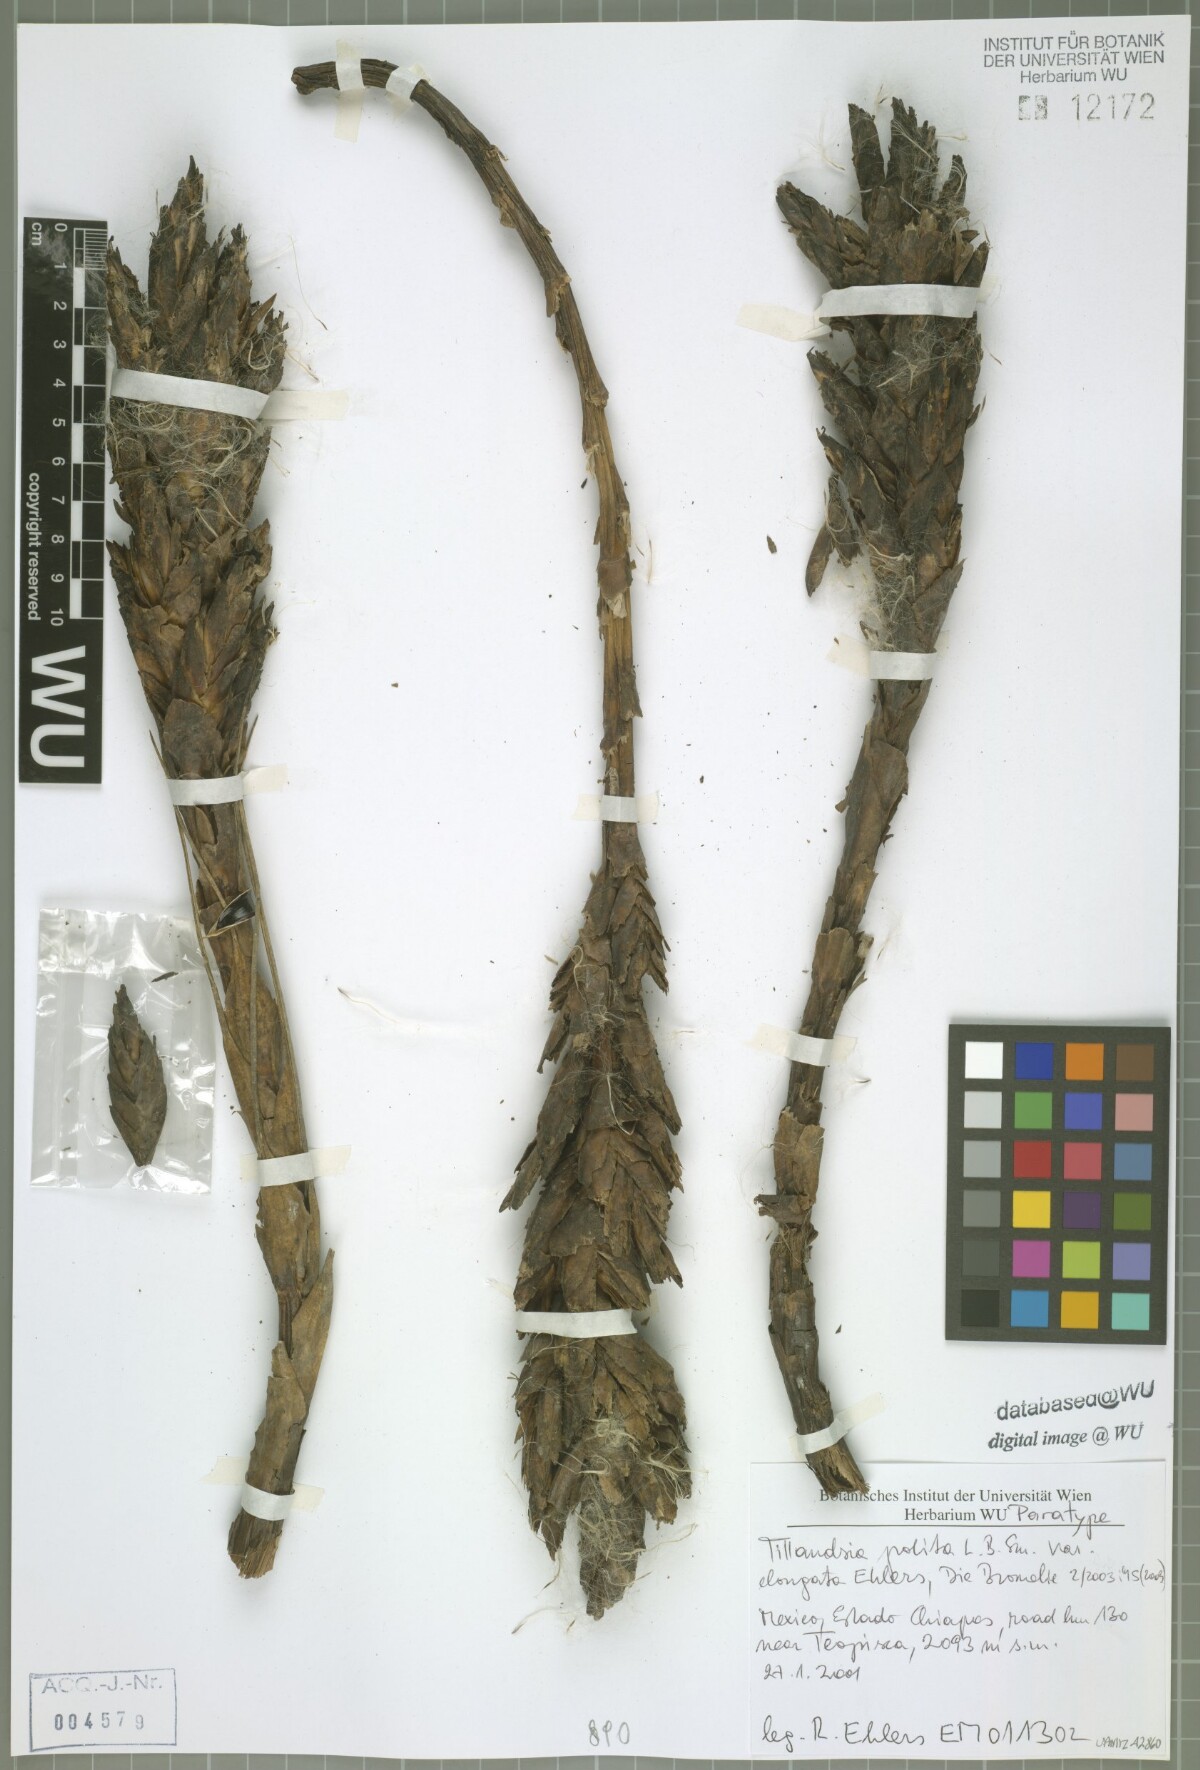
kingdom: Plantae
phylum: Tracheophyta
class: Liliopsida
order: Poales
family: Bromeliaceae
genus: Tillandsia
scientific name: Tillandsia polita
